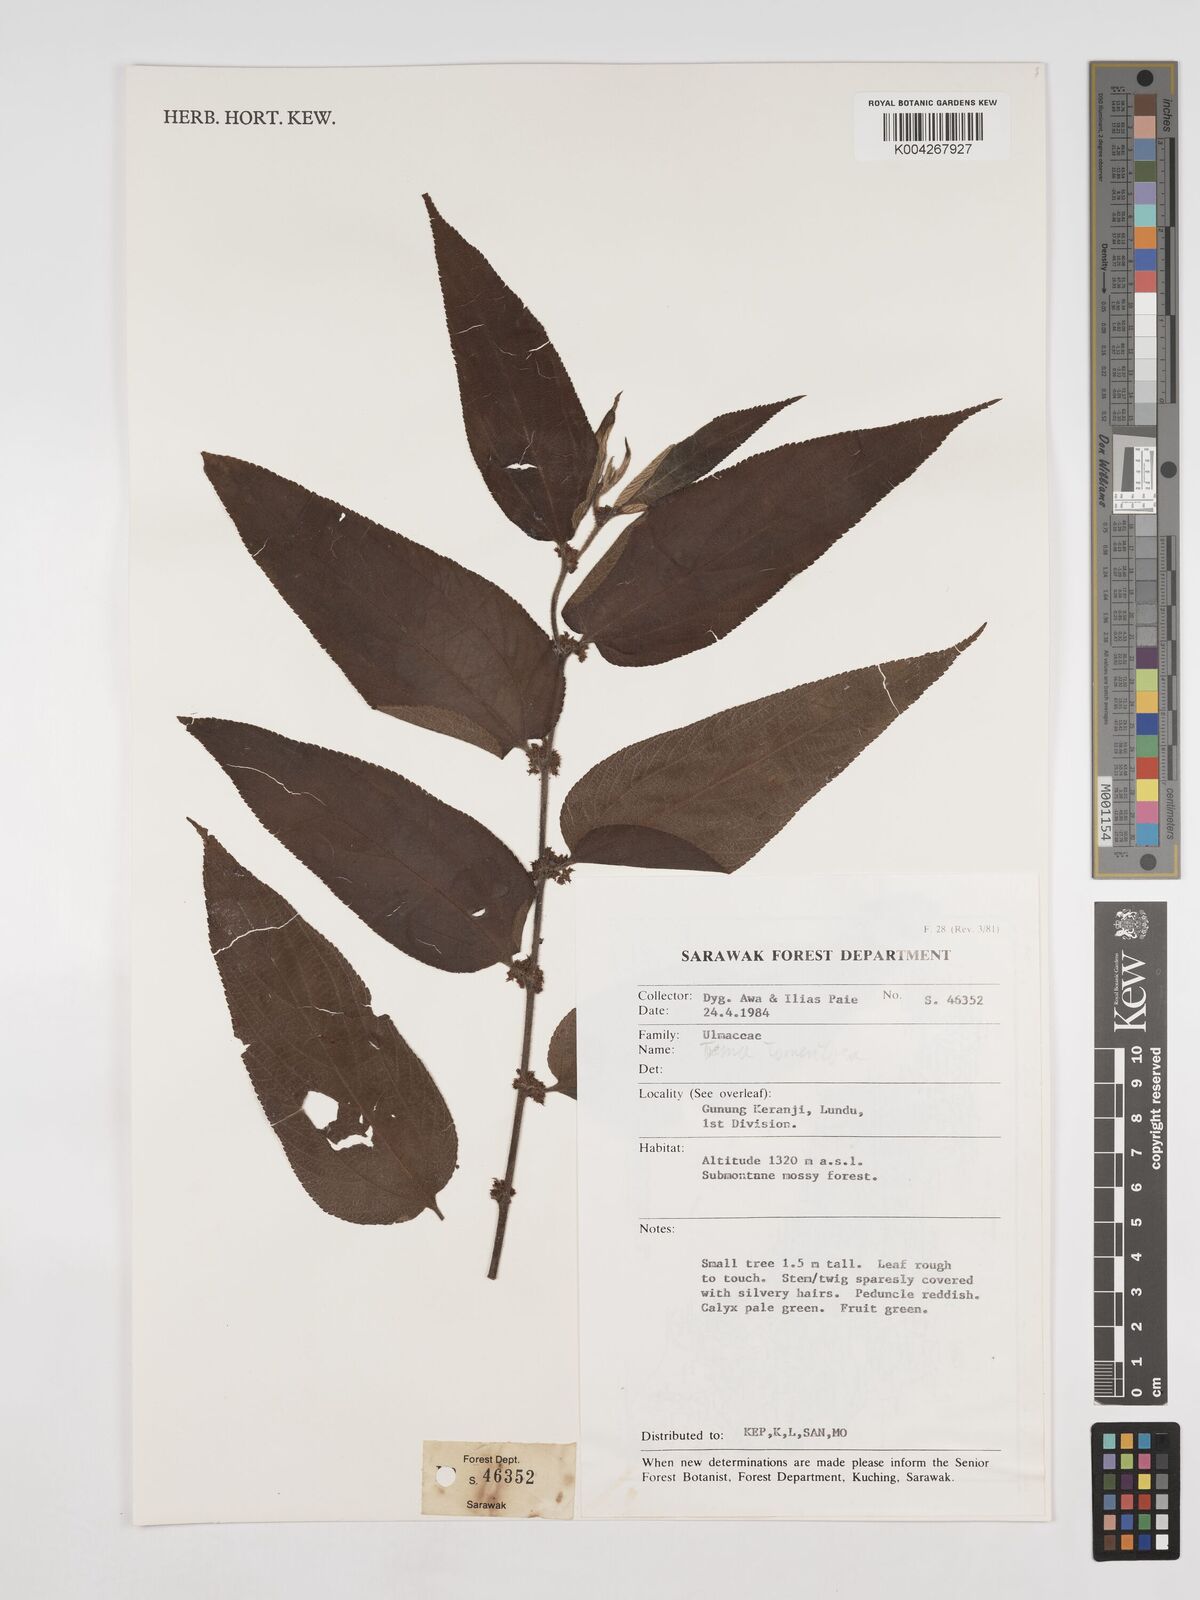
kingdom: Plantae
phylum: Tracheophyta
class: Magnoliopsida
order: Rosales
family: Cannabaceae
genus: Trema
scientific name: Trema tomentosum
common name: Peach-leaf-poisonbush
